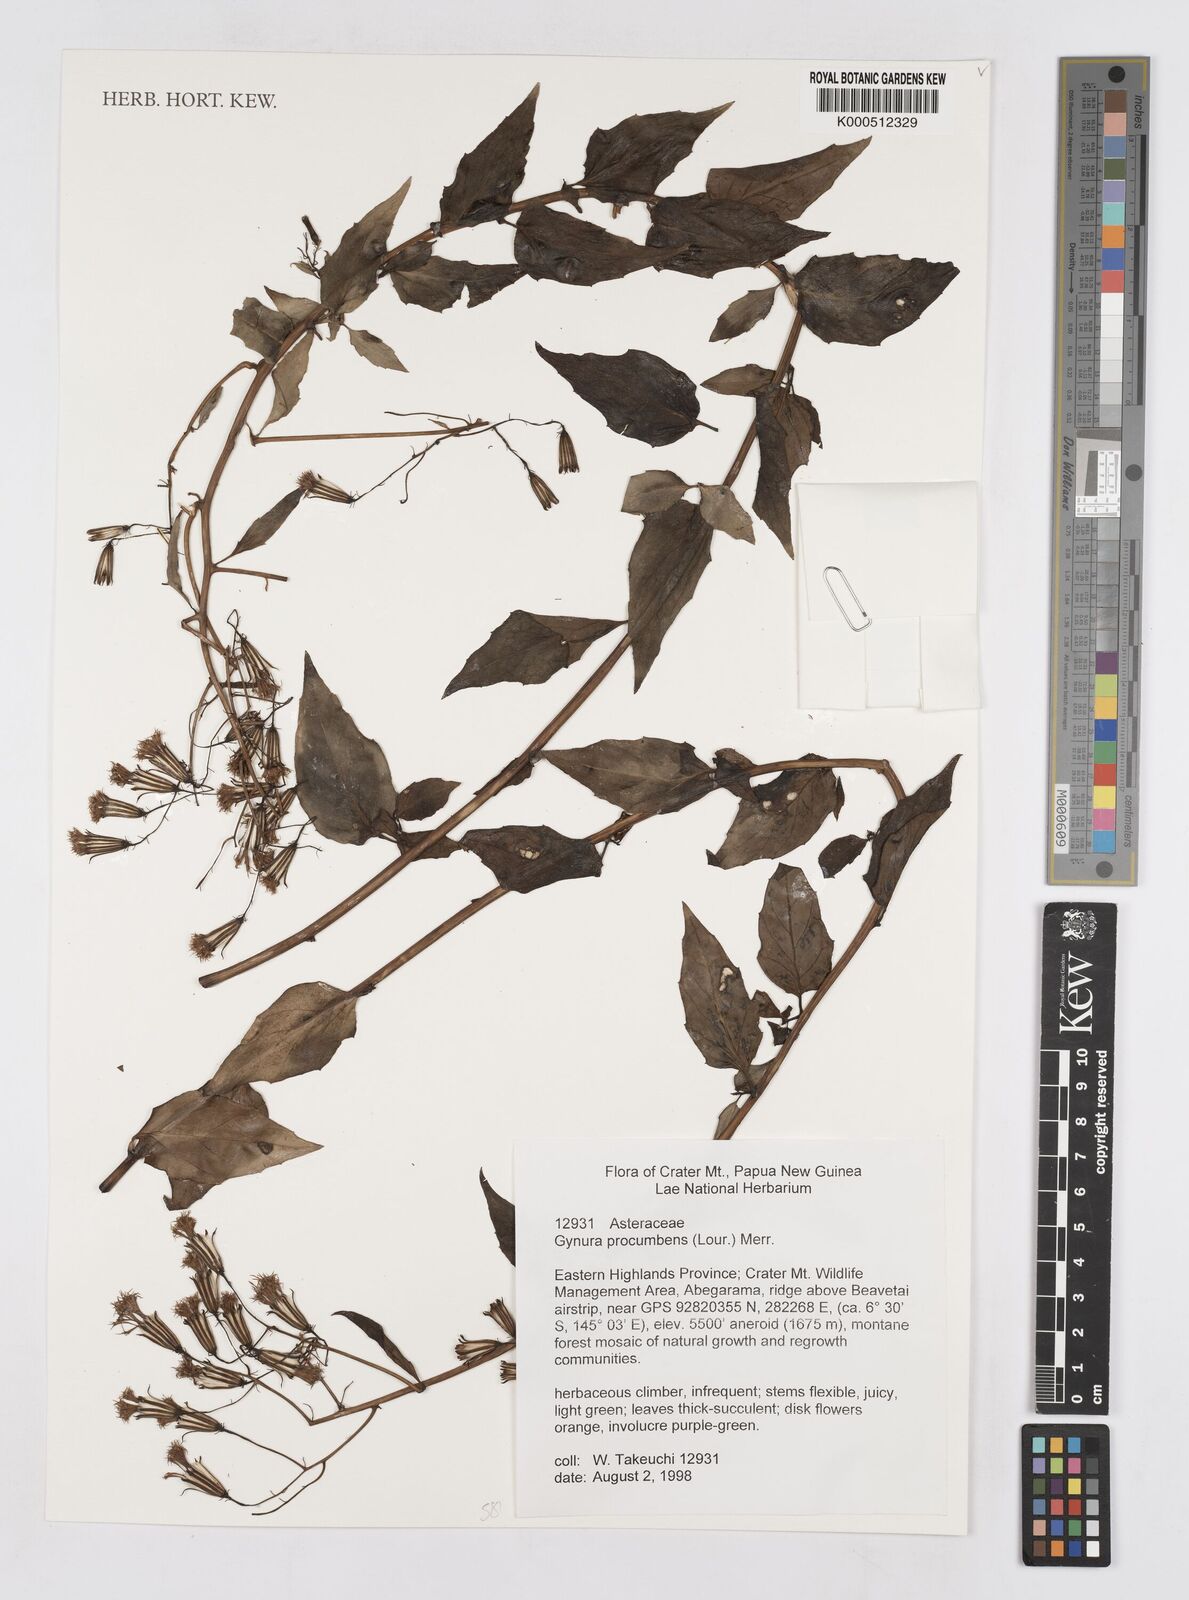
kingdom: Plantae
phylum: Tracheophyta
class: Magnoliopsida
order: Asterales
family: Asteraceae
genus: Gynura
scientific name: Gynura procumbens
